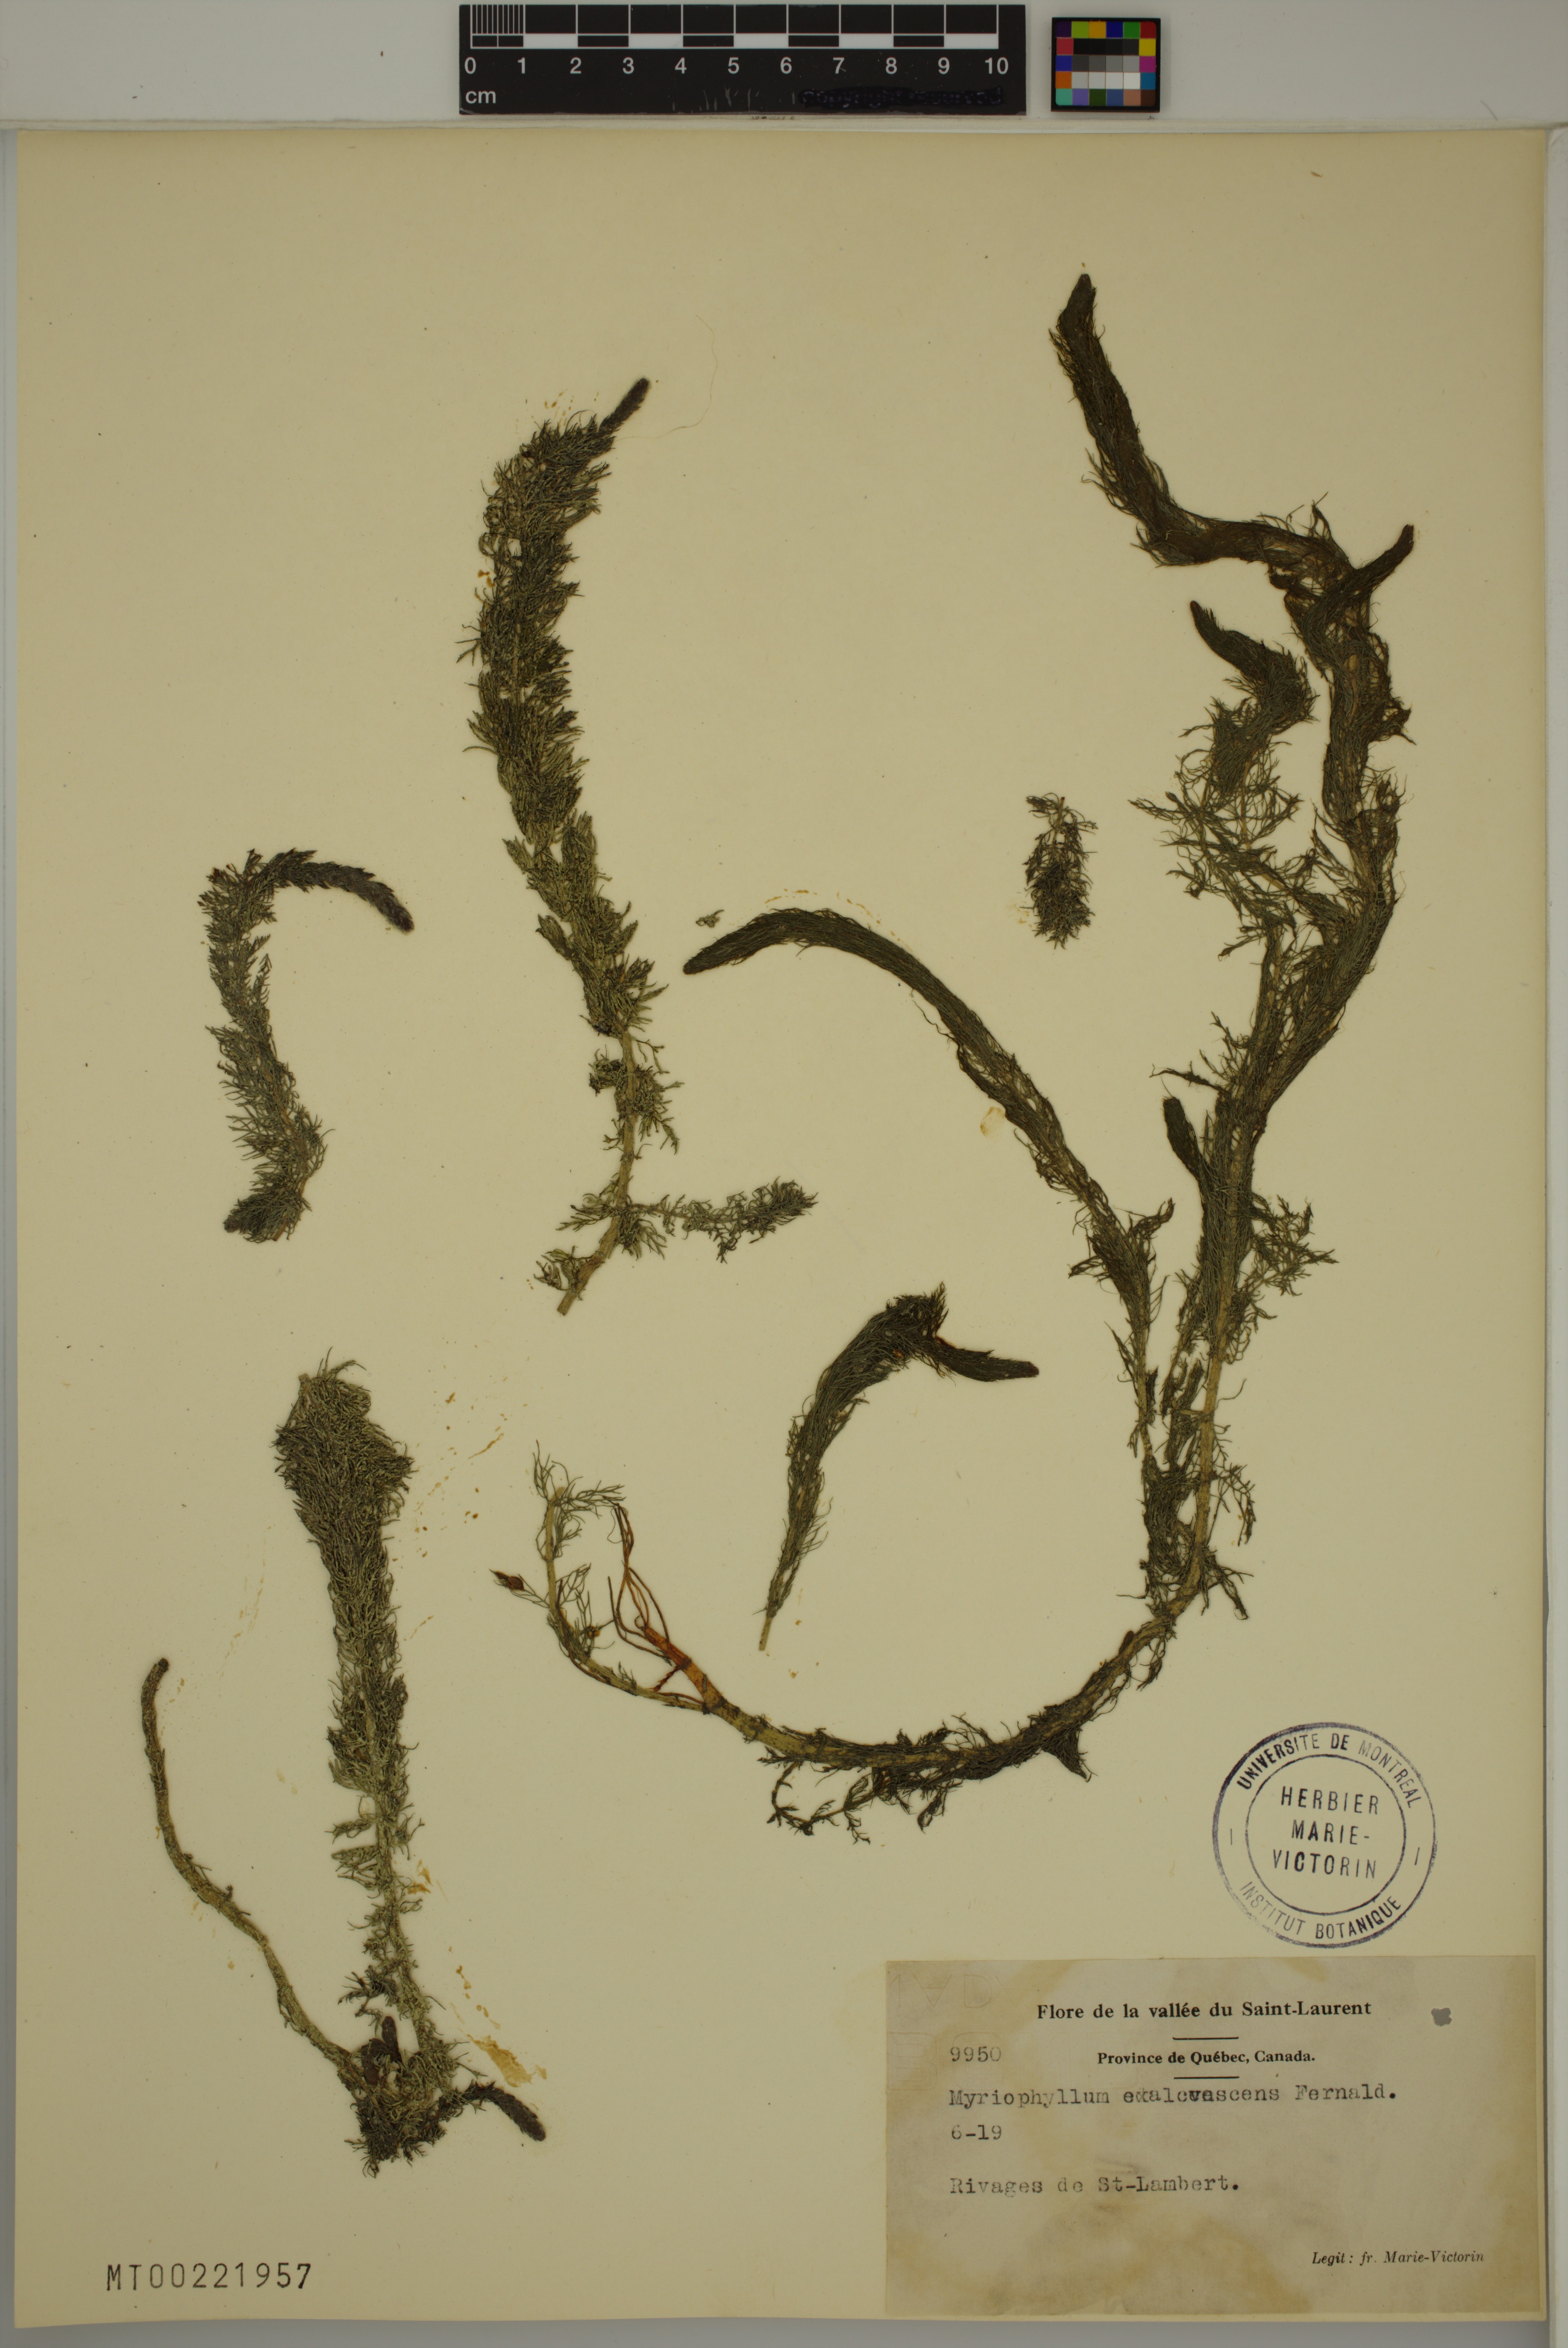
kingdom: Plantae
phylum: Tracheophyta
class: Magnoliopsida
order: Saxifragales
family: Haloragaceae
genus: Myriophyllum
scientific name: Myriophyllum sibiricum
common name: Siberian water-milfoil
